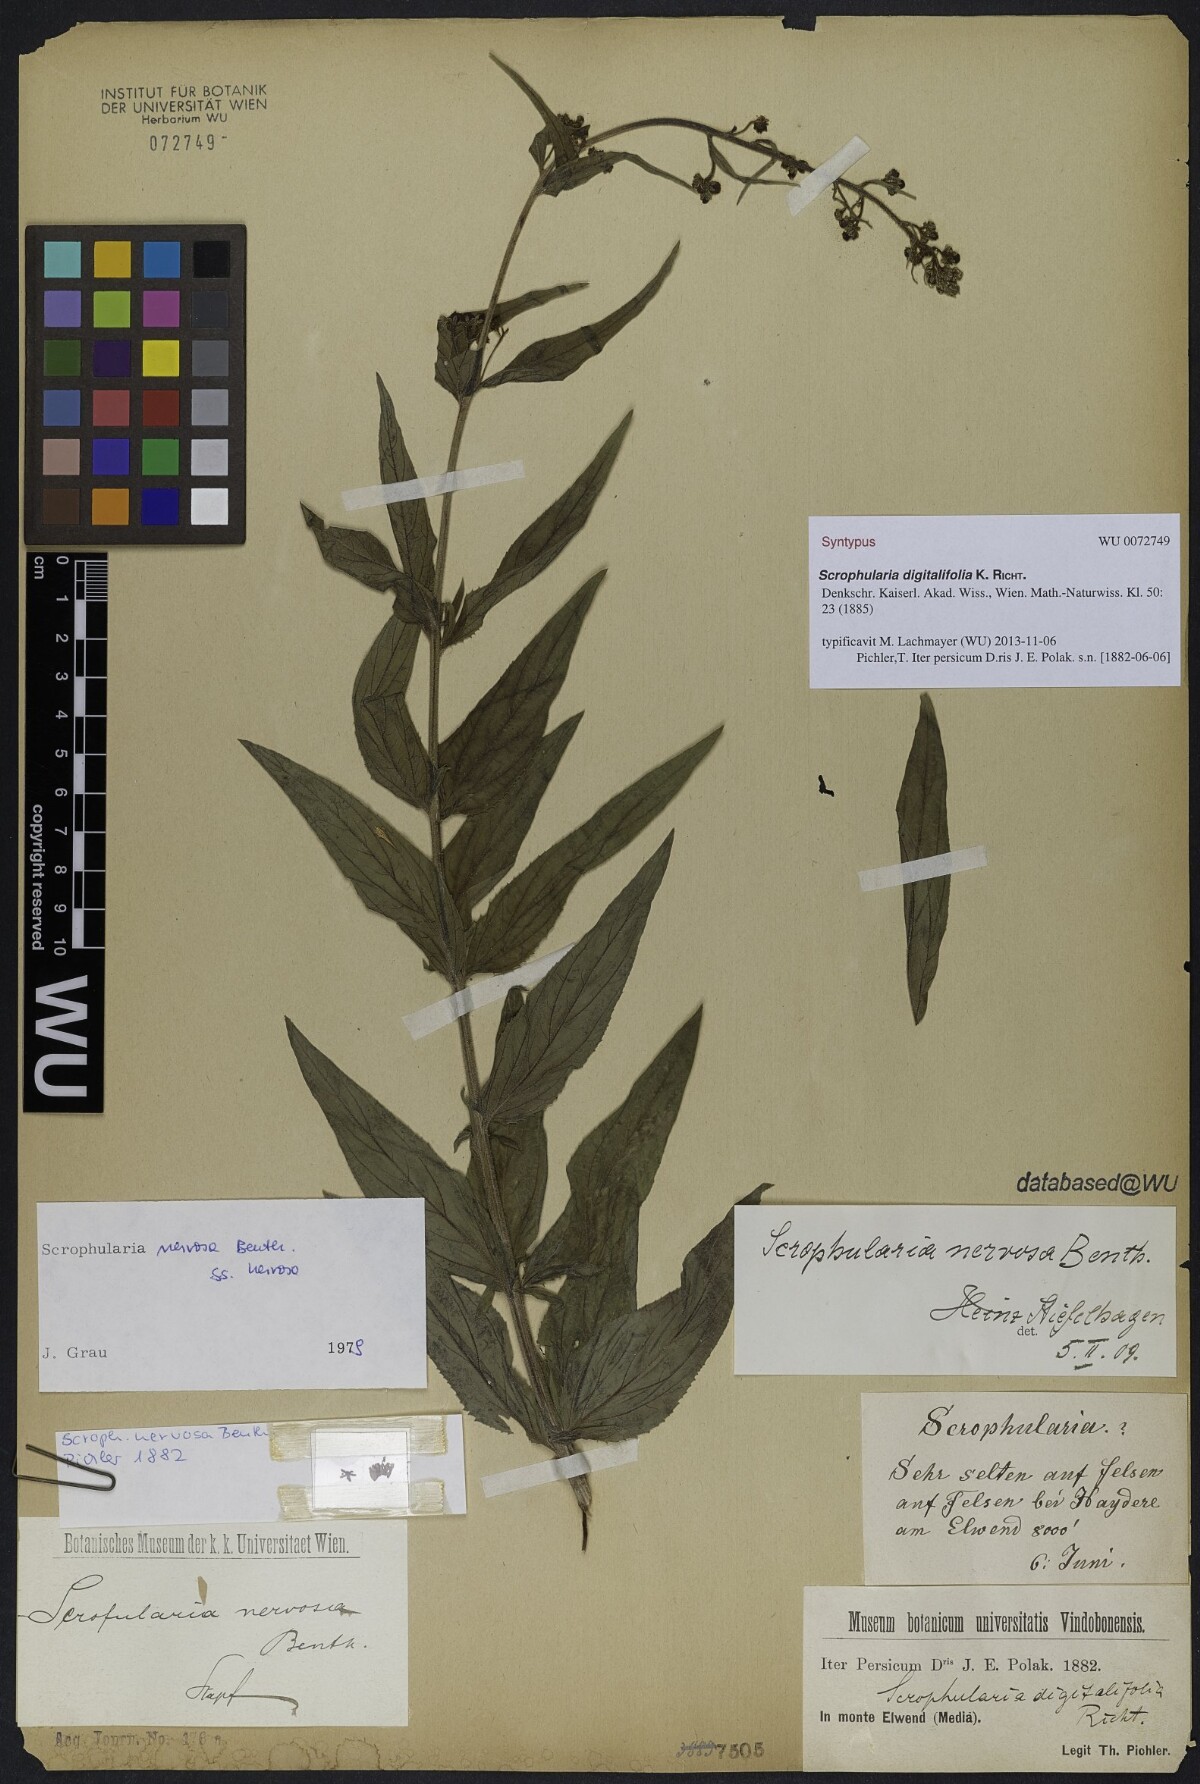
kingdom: Plantae
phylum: Tracheophyta
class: Magnoliopsida
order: Lamiales
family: Scrophulariaceae
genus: Scrophularia
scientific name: Scrophularia nervosa
